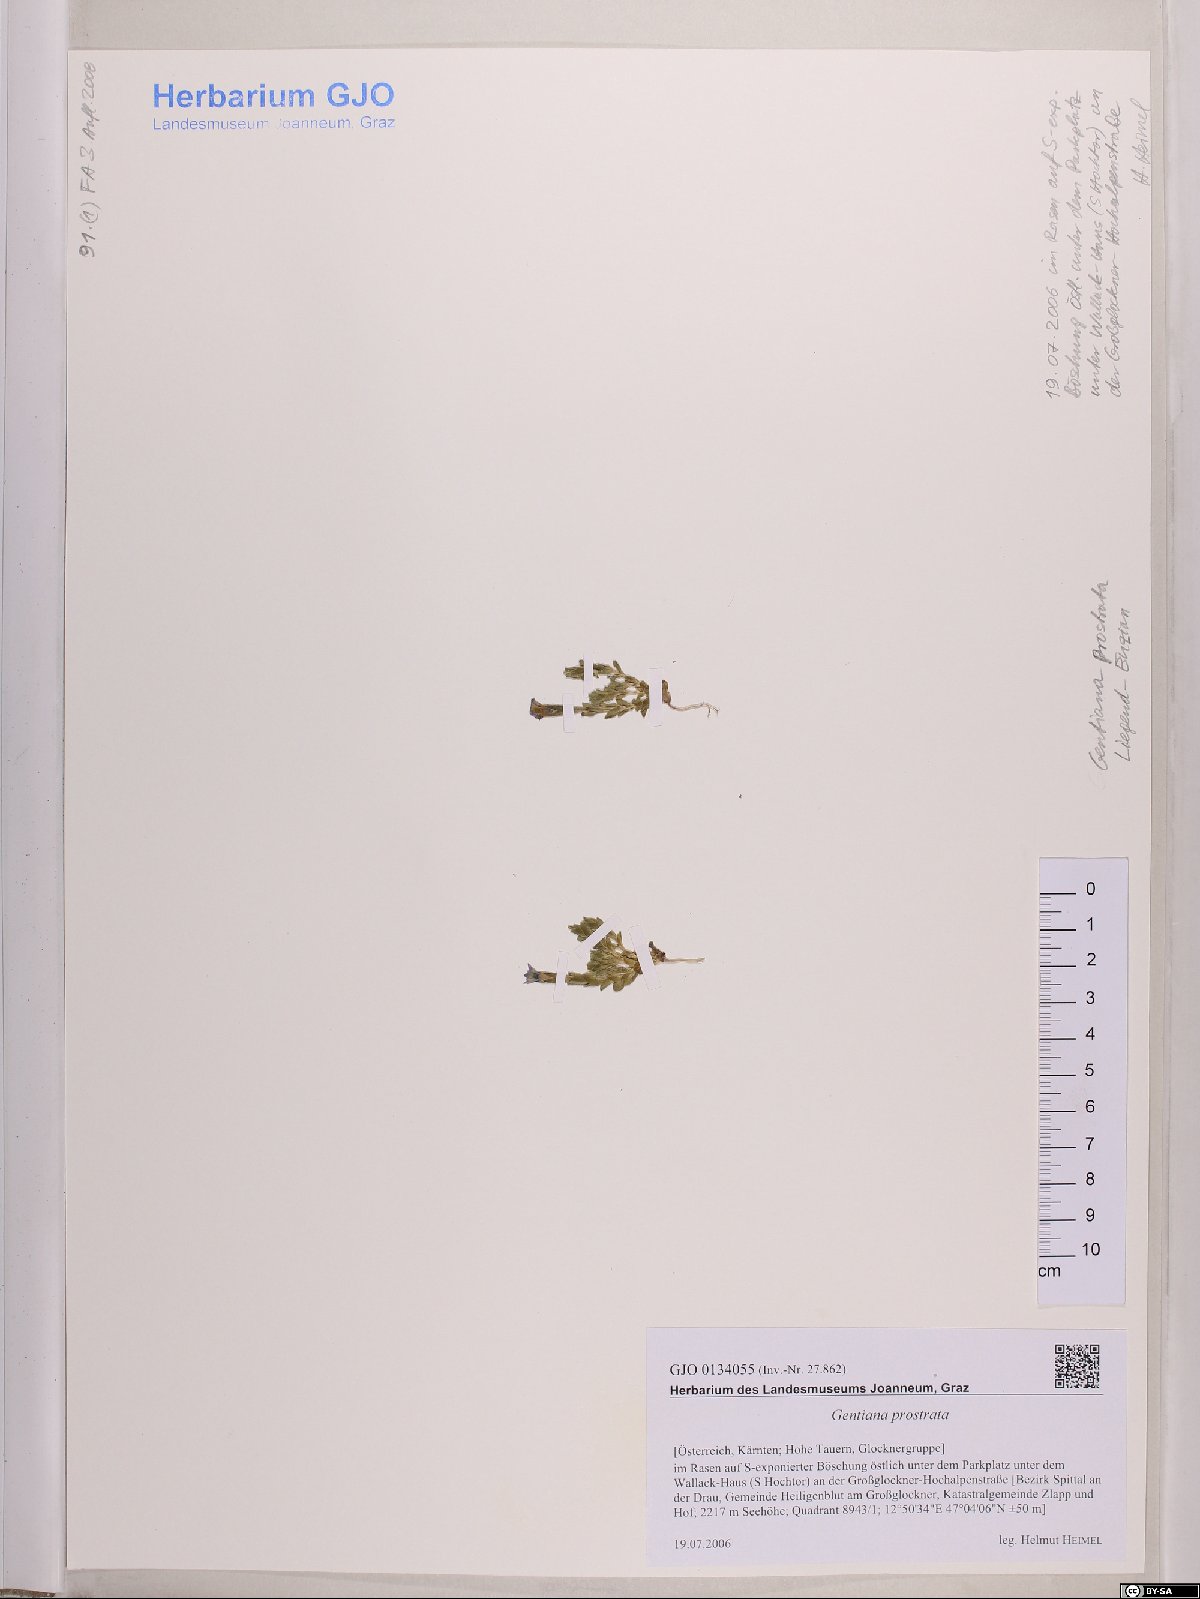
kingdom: Plantae
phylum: Tracheophyta
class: Magnoliopsida
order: Gentianales
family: Gentianaceae
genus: Gentiana
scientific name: Gentiana prostrata
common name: Moss gentian
